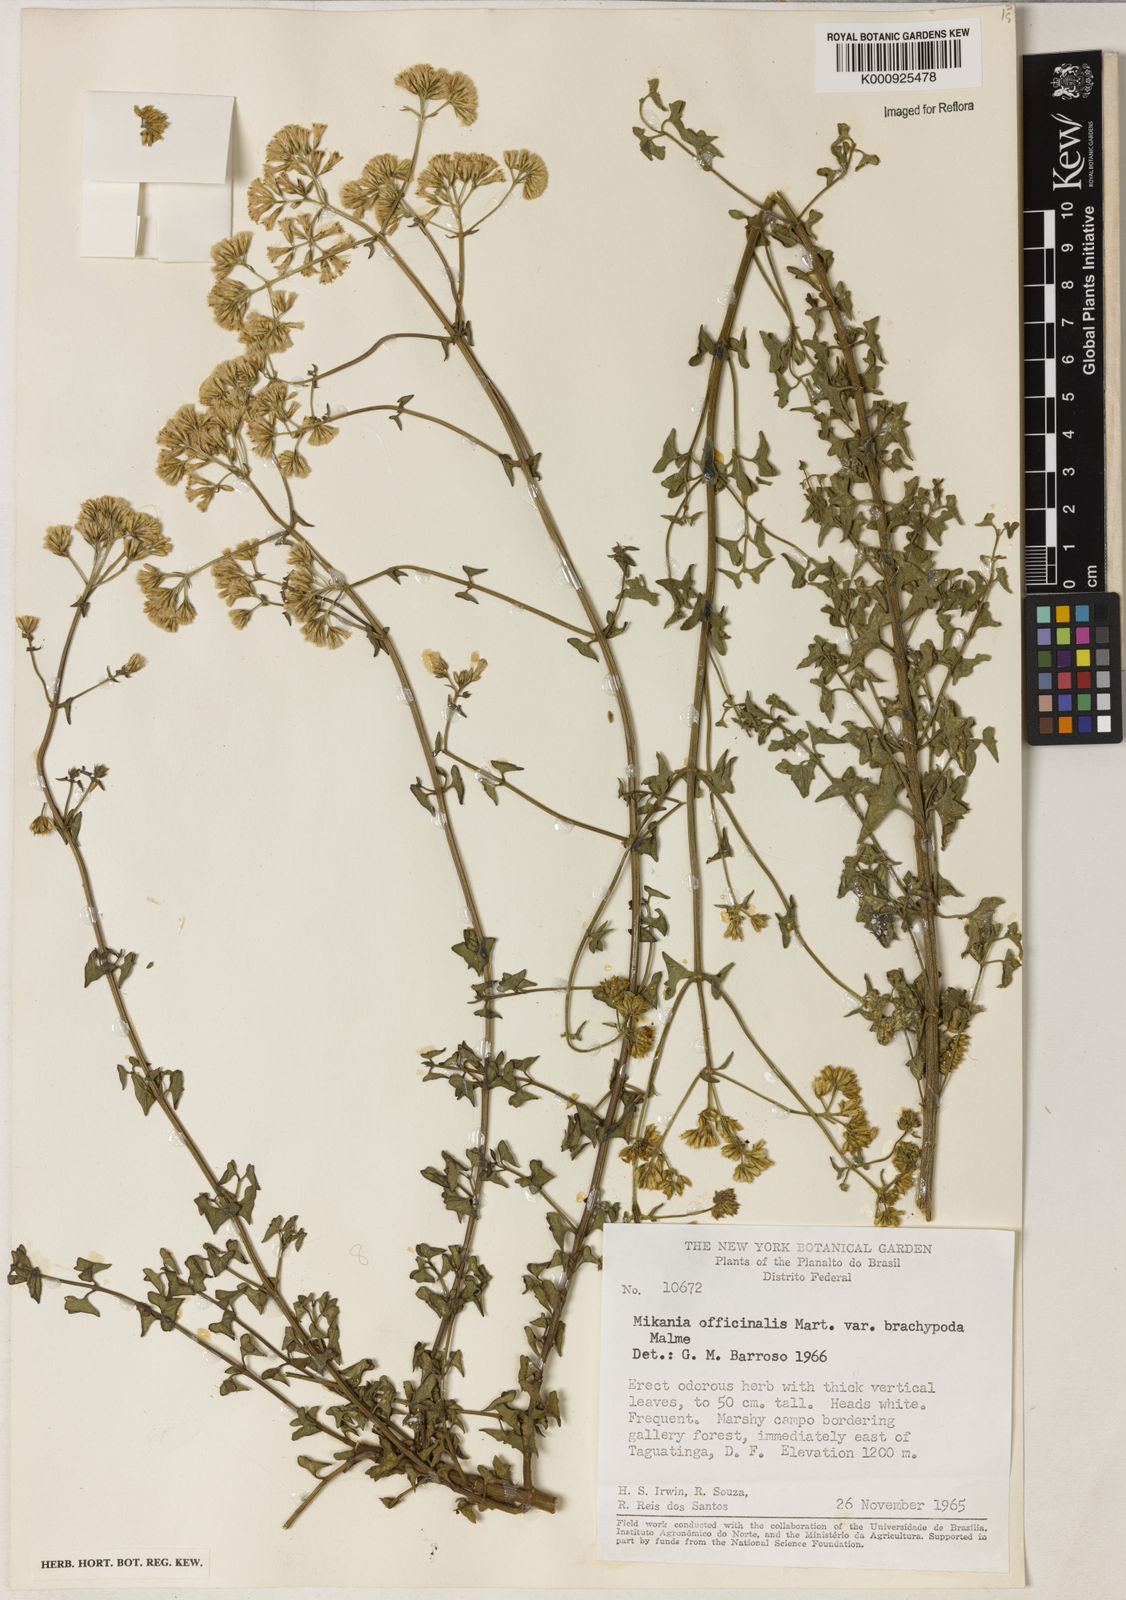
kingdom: Plantae
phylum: Tracheophyta
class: Magnoliopsida
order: Asterales
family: Asteraceae
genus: Mikania
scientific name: Mikania officinalis
